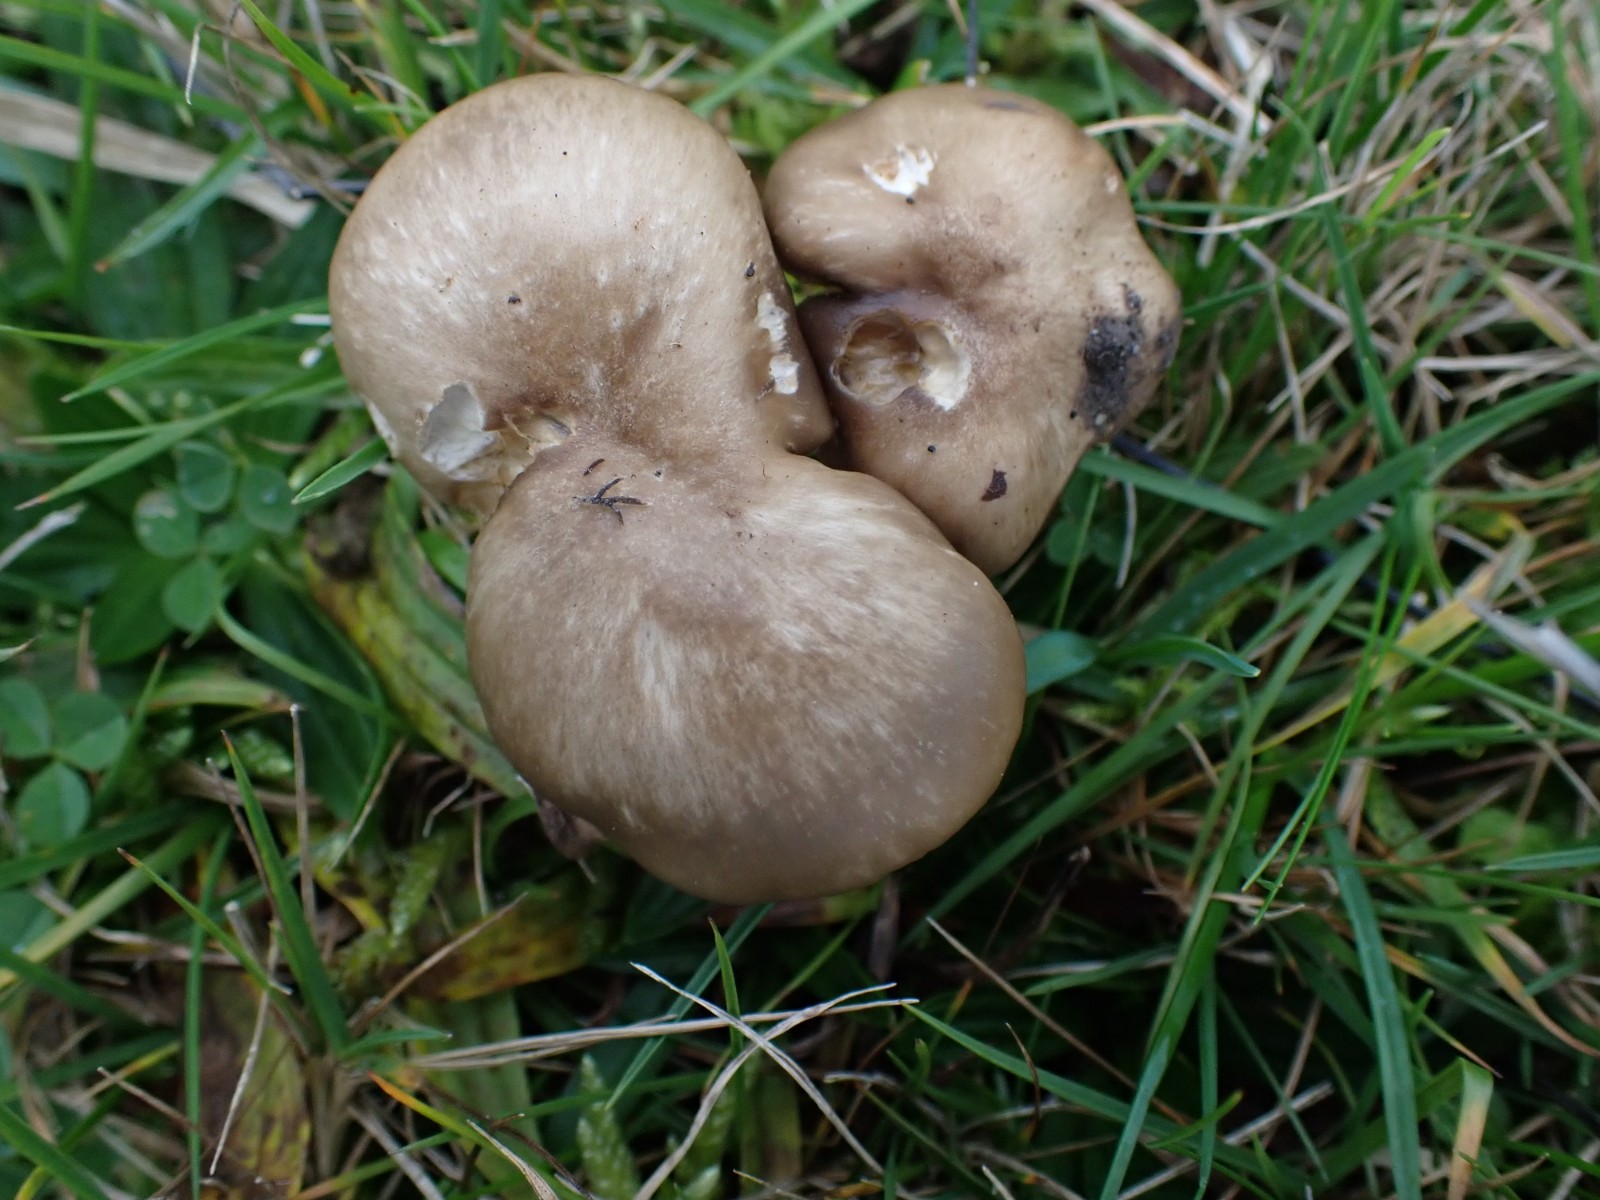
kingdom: Fungi
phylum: Basidiomycota
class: Agaricomycetes
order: Agaricales
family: Hygrophoraceae
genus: Cuphophyllus
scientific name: Cuphophyllus fornicatus
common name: gråbrun vokshat
